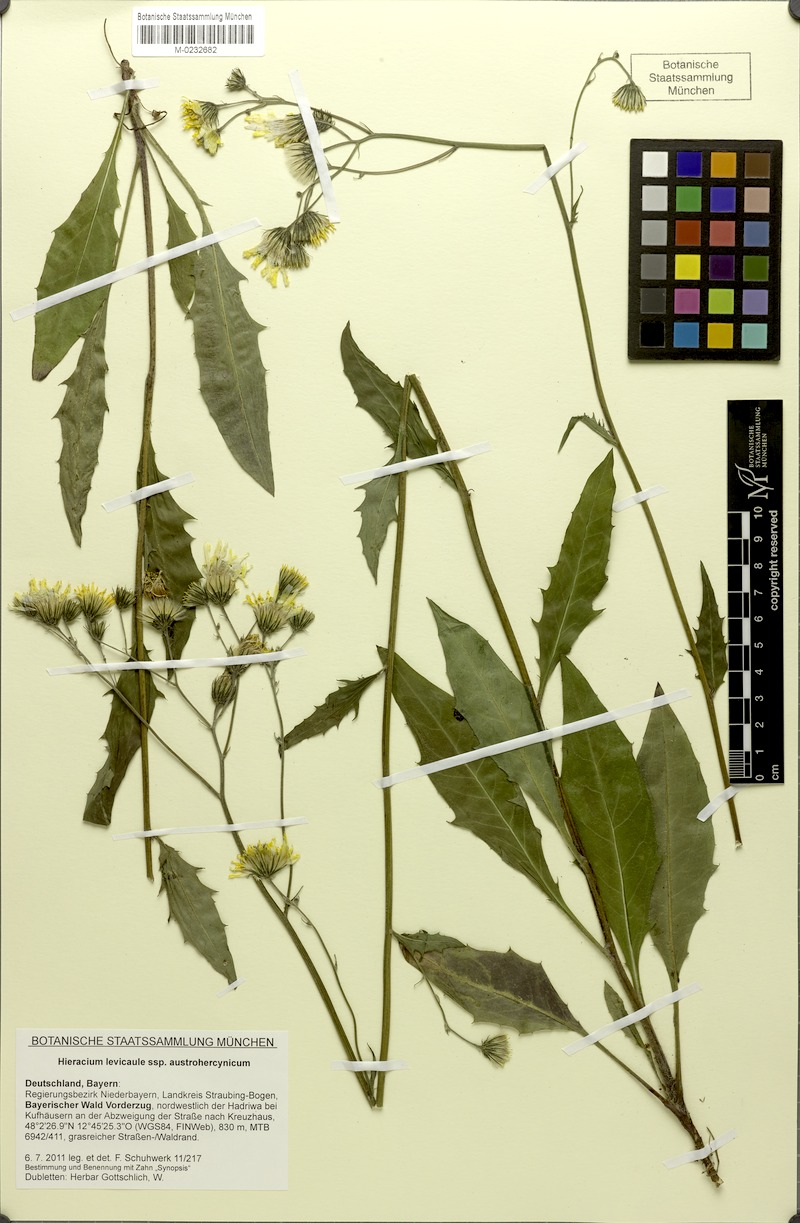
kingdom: Plantae
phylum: Tracheophyta
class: Magnoliopsida
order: Asterales
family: Asteraceae
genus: Hieracium
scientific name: Hieracium levicaule
